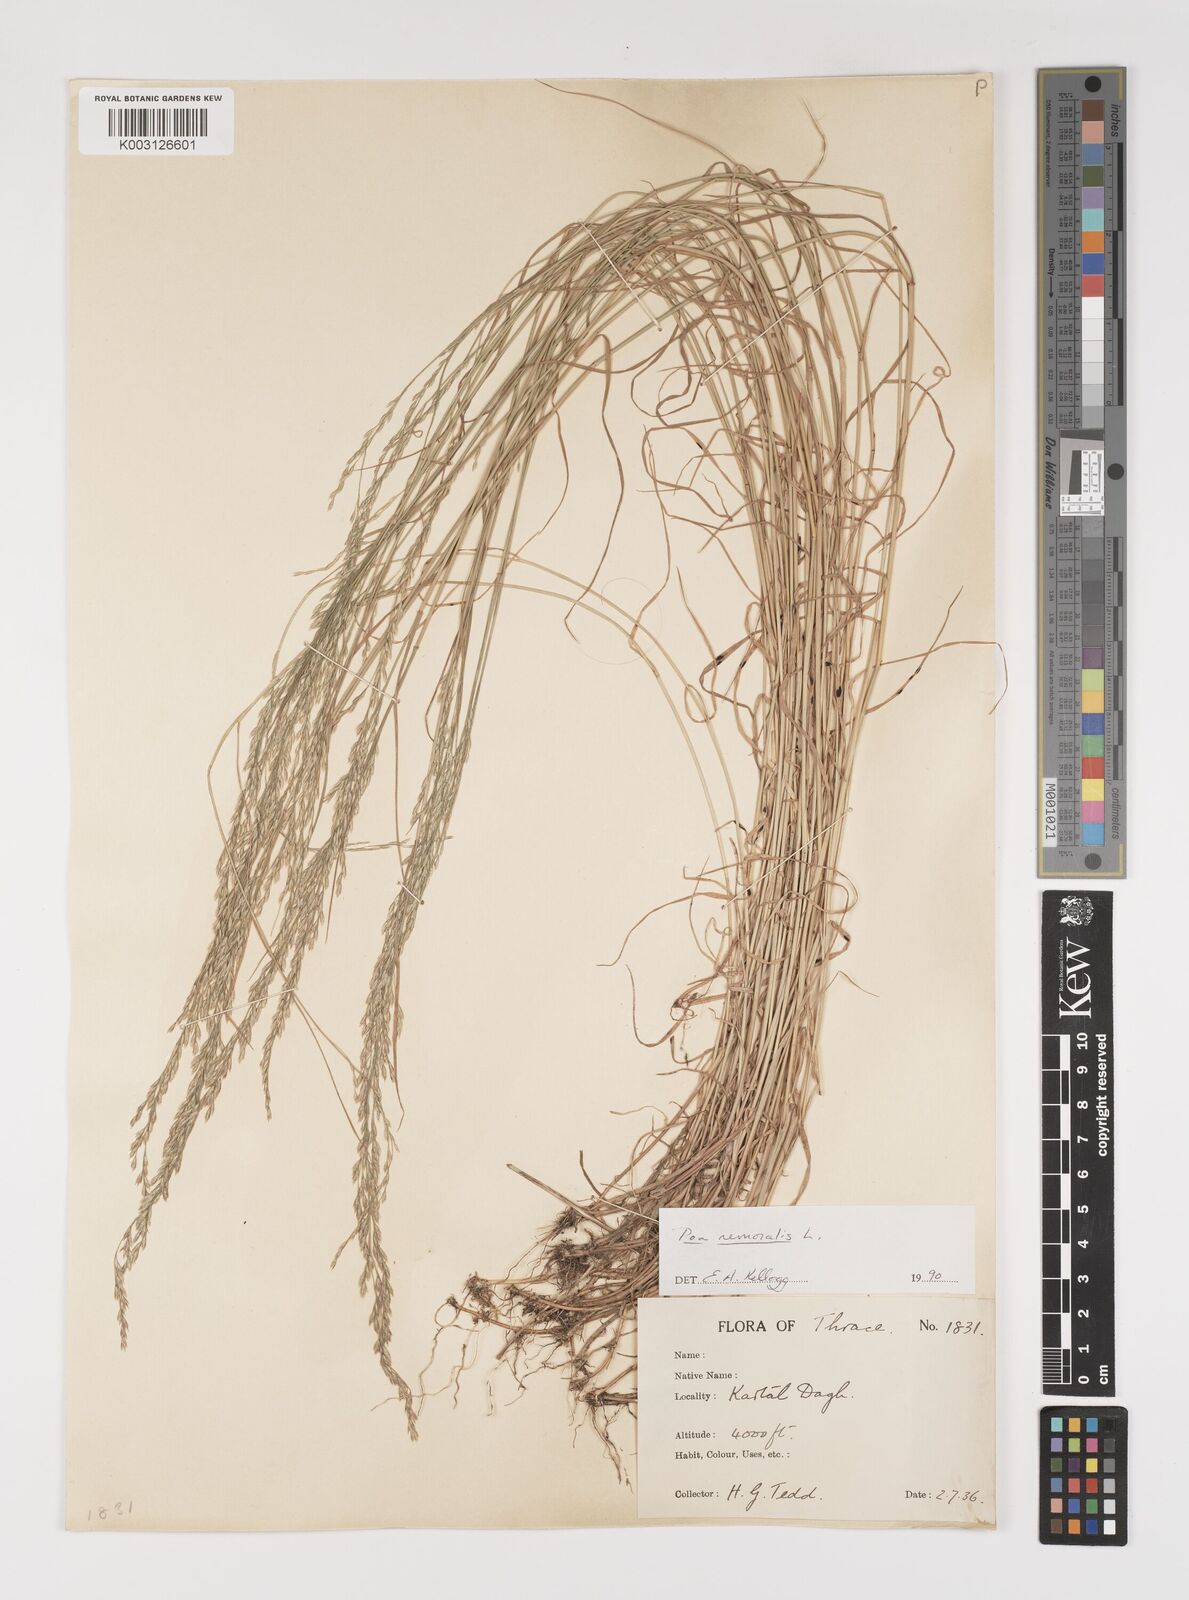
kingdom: Plantae
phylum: Tracheophyta
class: Liliopsida
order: Poales
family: Poaceae
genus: Poa
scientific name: Poa nemoralis
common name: Wood bluegrass
